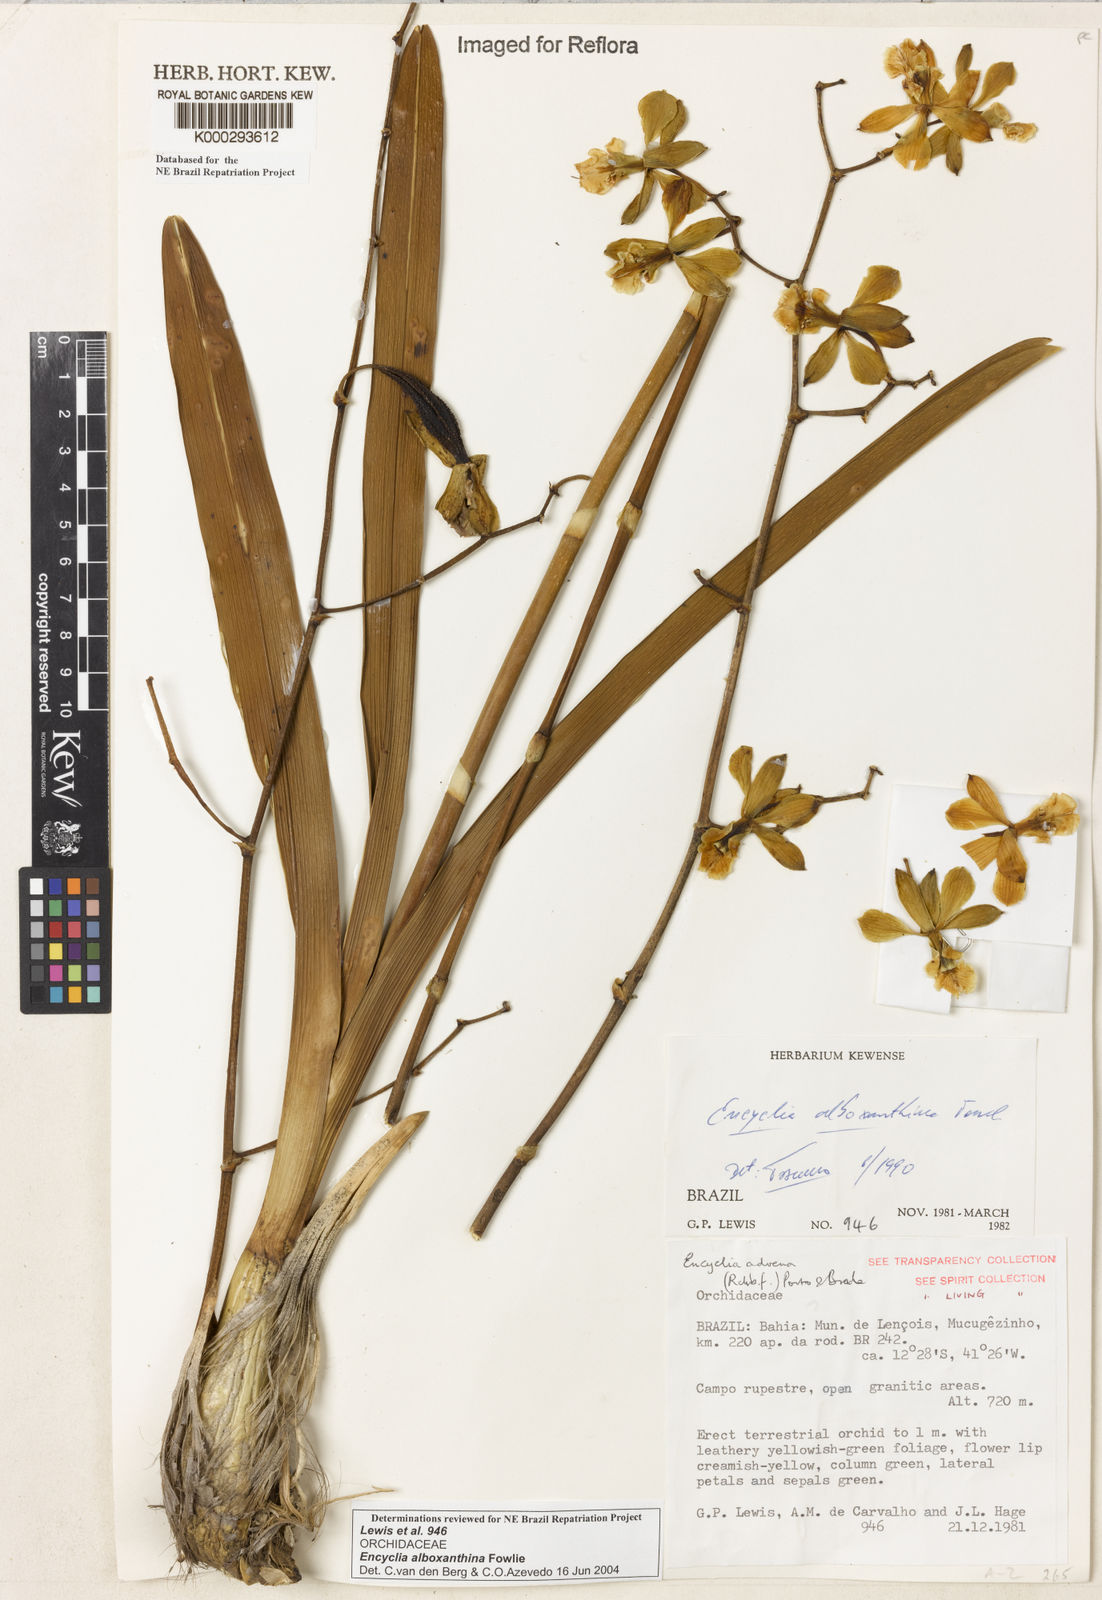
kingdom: Plantae
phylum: Tracheophyta
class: Liliopsida
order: Asparagales
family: Orchidaceae
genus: Encyclia
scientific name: Encyclia alboxanthina
